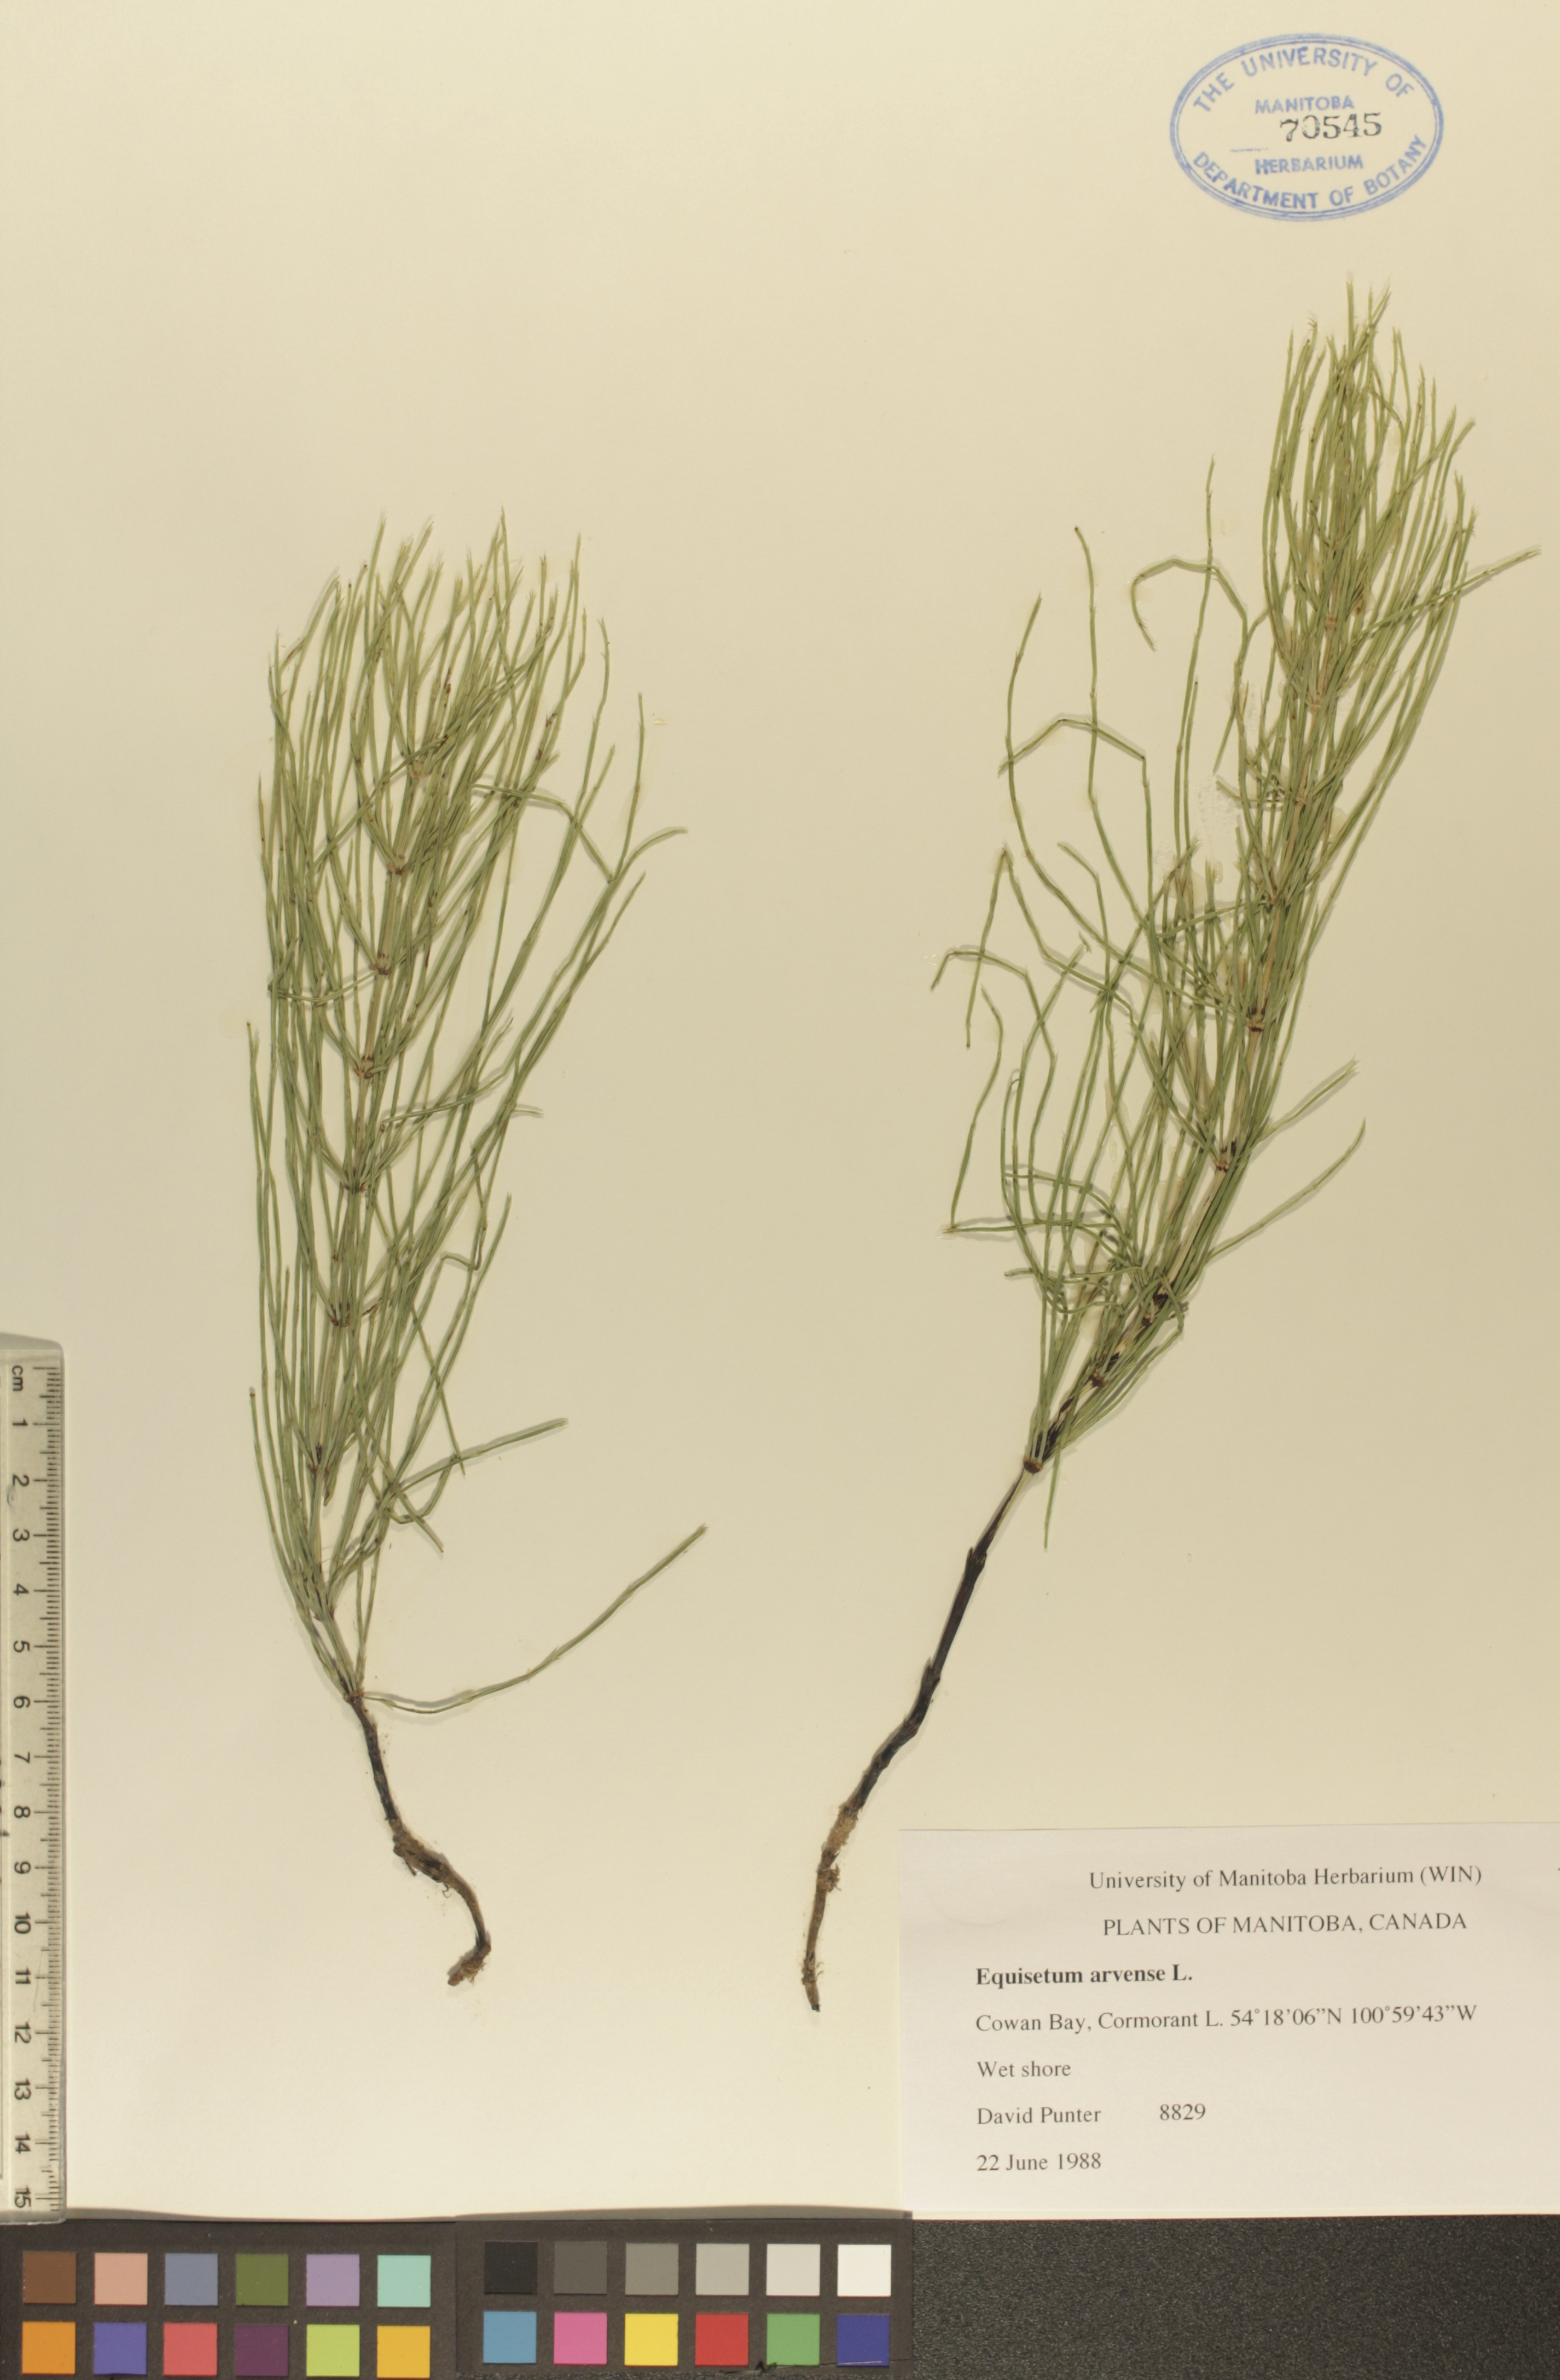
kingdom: Plantae
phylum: Tracheophyta
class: Polypodiopsida
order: Equisetales
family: Equisetaceae
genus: Equisetum
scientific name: Equisetum arvense
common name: Field horsetail
